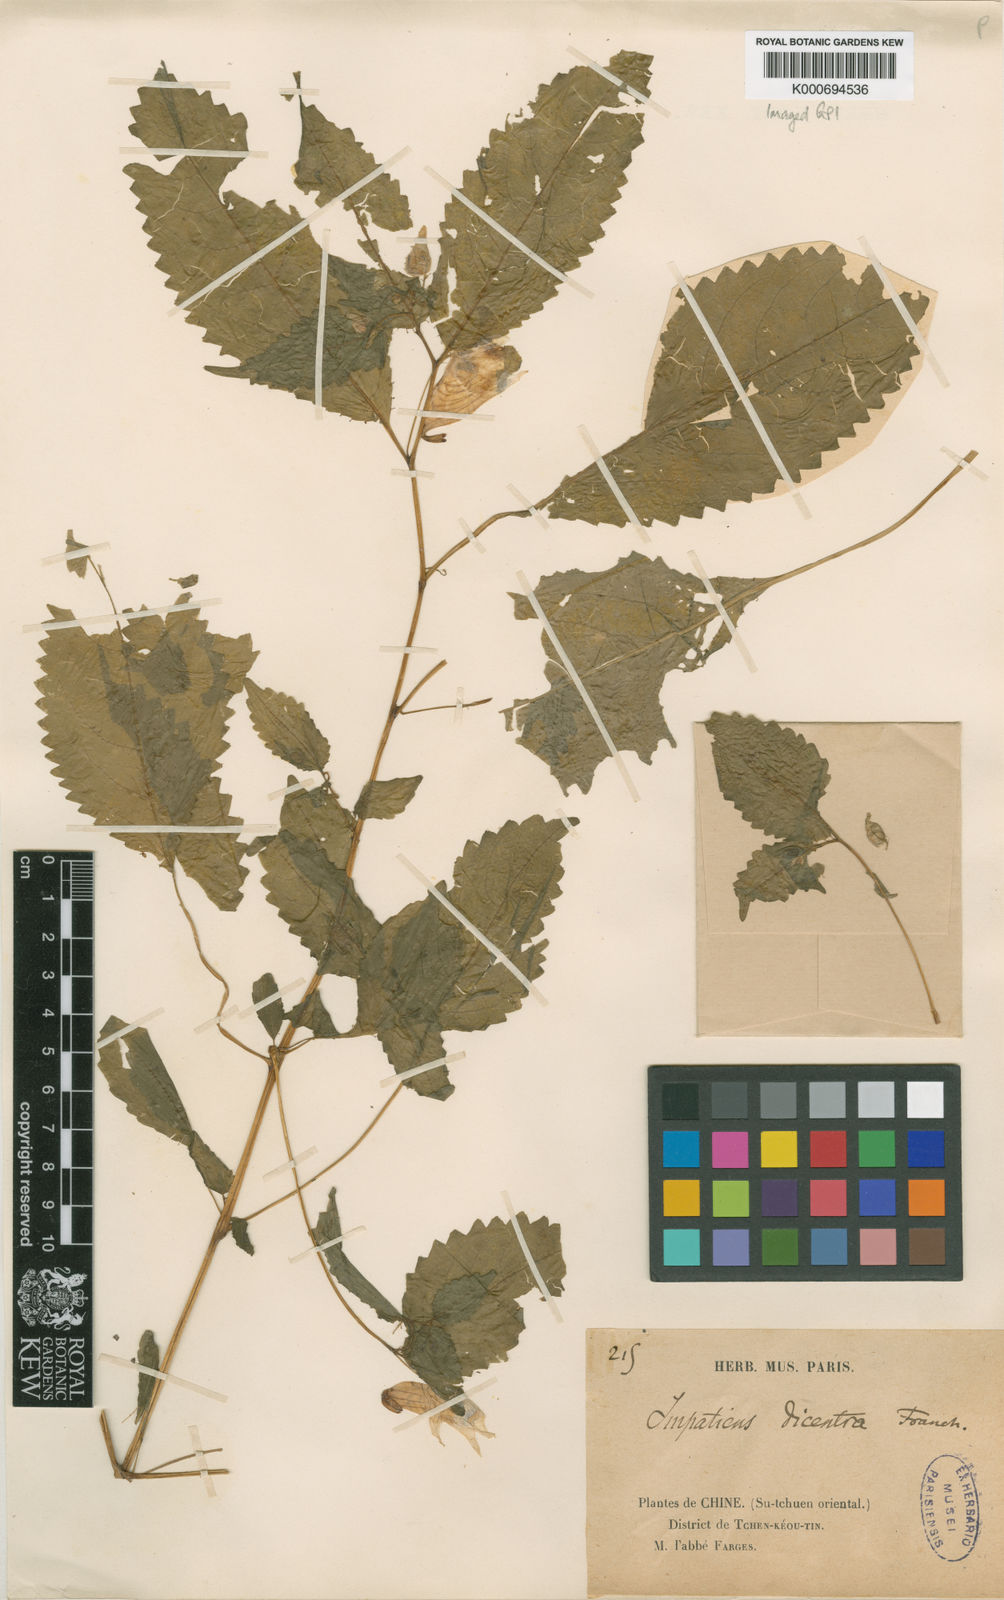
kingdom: Plantae
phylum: Tracheophyta
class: Magnoliopsida
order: Ericales
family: Balsaminaceae
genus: Impatiens
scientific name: Impatiens dicentra
